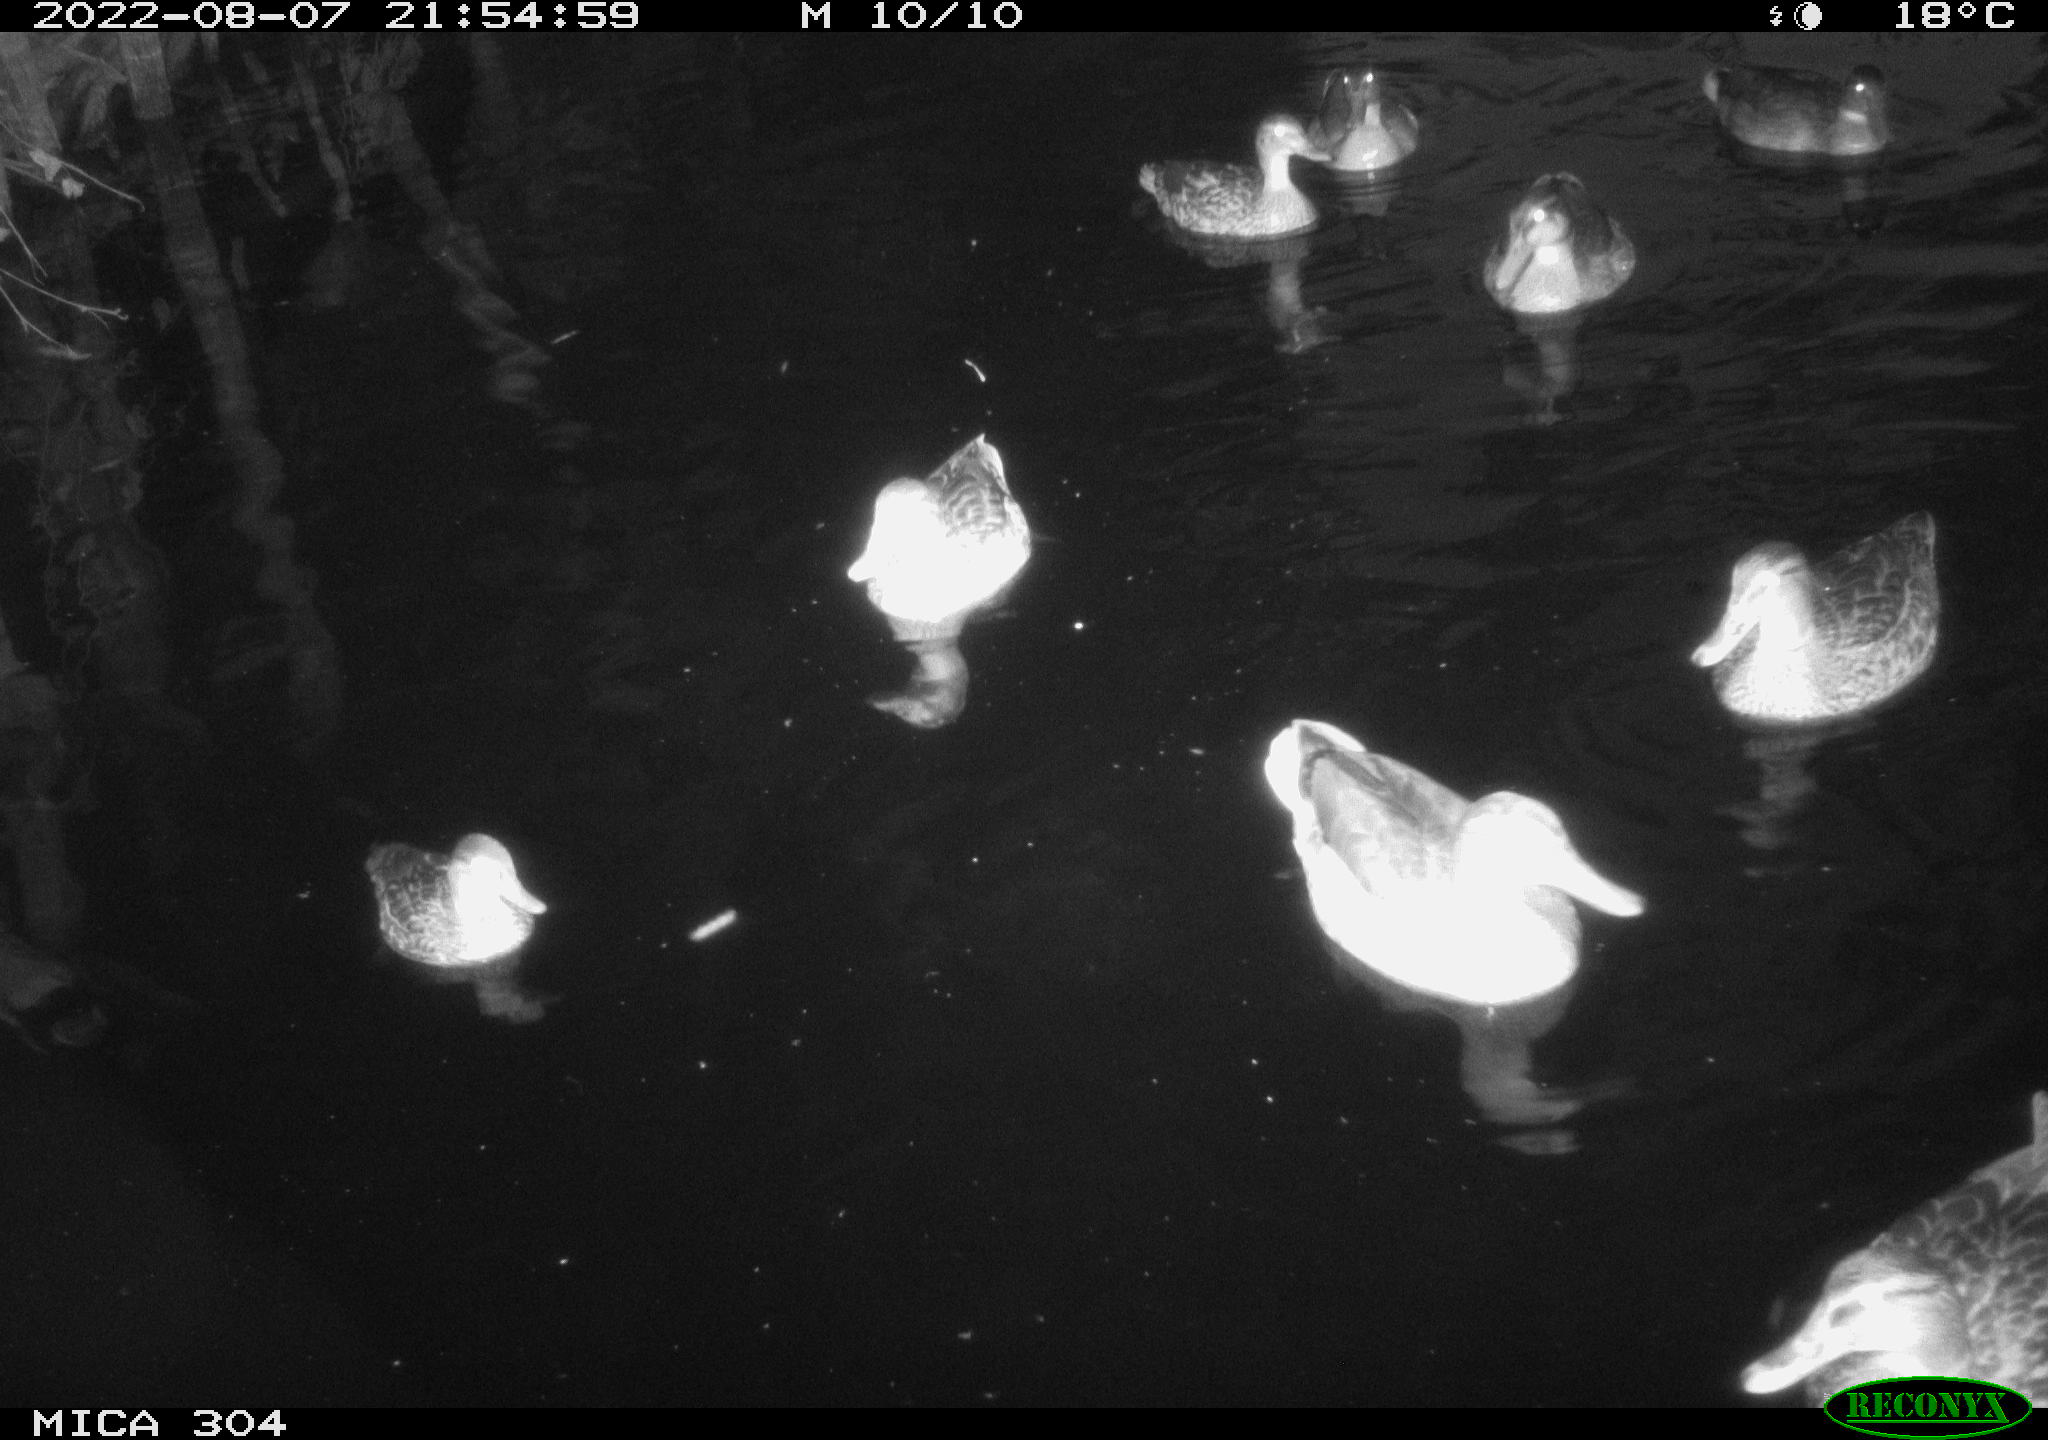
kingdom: Animalia
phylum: Chordata
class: Aves
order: Anseriformes
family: Anatidae
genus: Mareca
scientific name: Mareca strepera
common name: Gadwall
